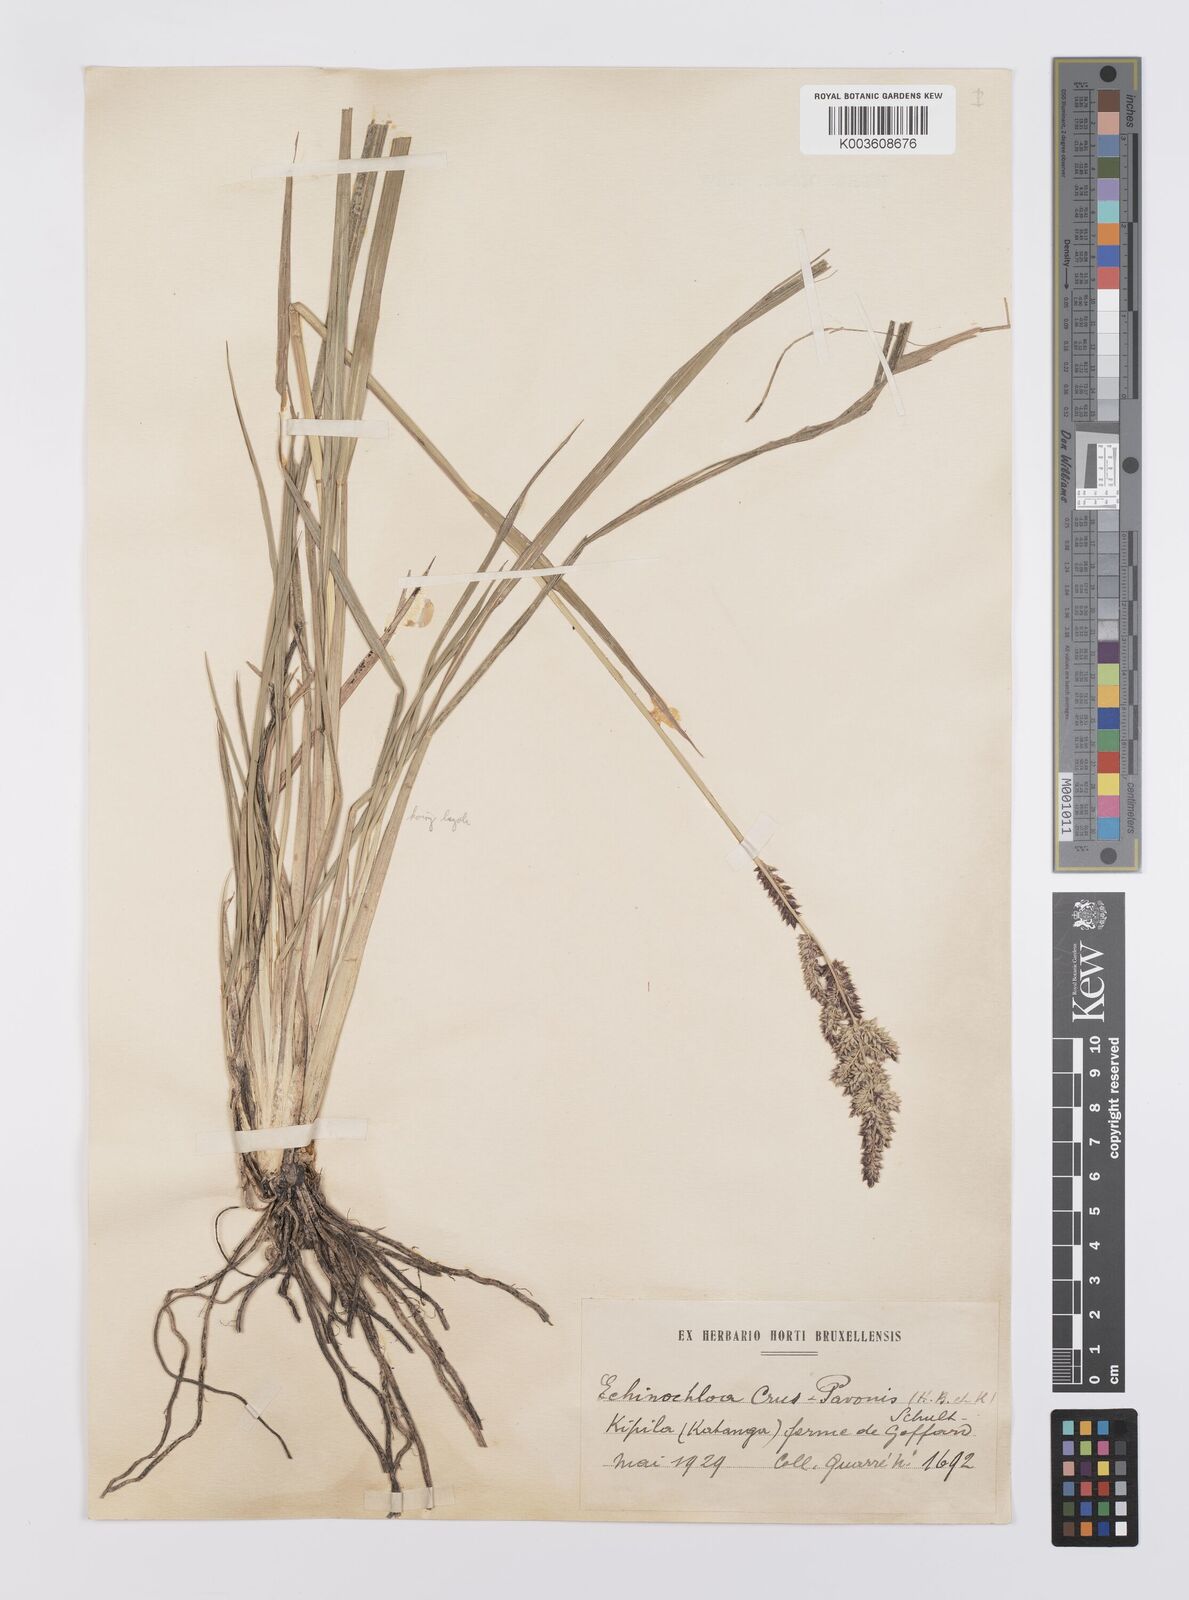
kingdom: Plantae
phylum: Tracheophyta
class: Liliopsida
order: Poales
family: Poaceae
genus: Echinochloa
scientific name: Echinochloa haploclada
